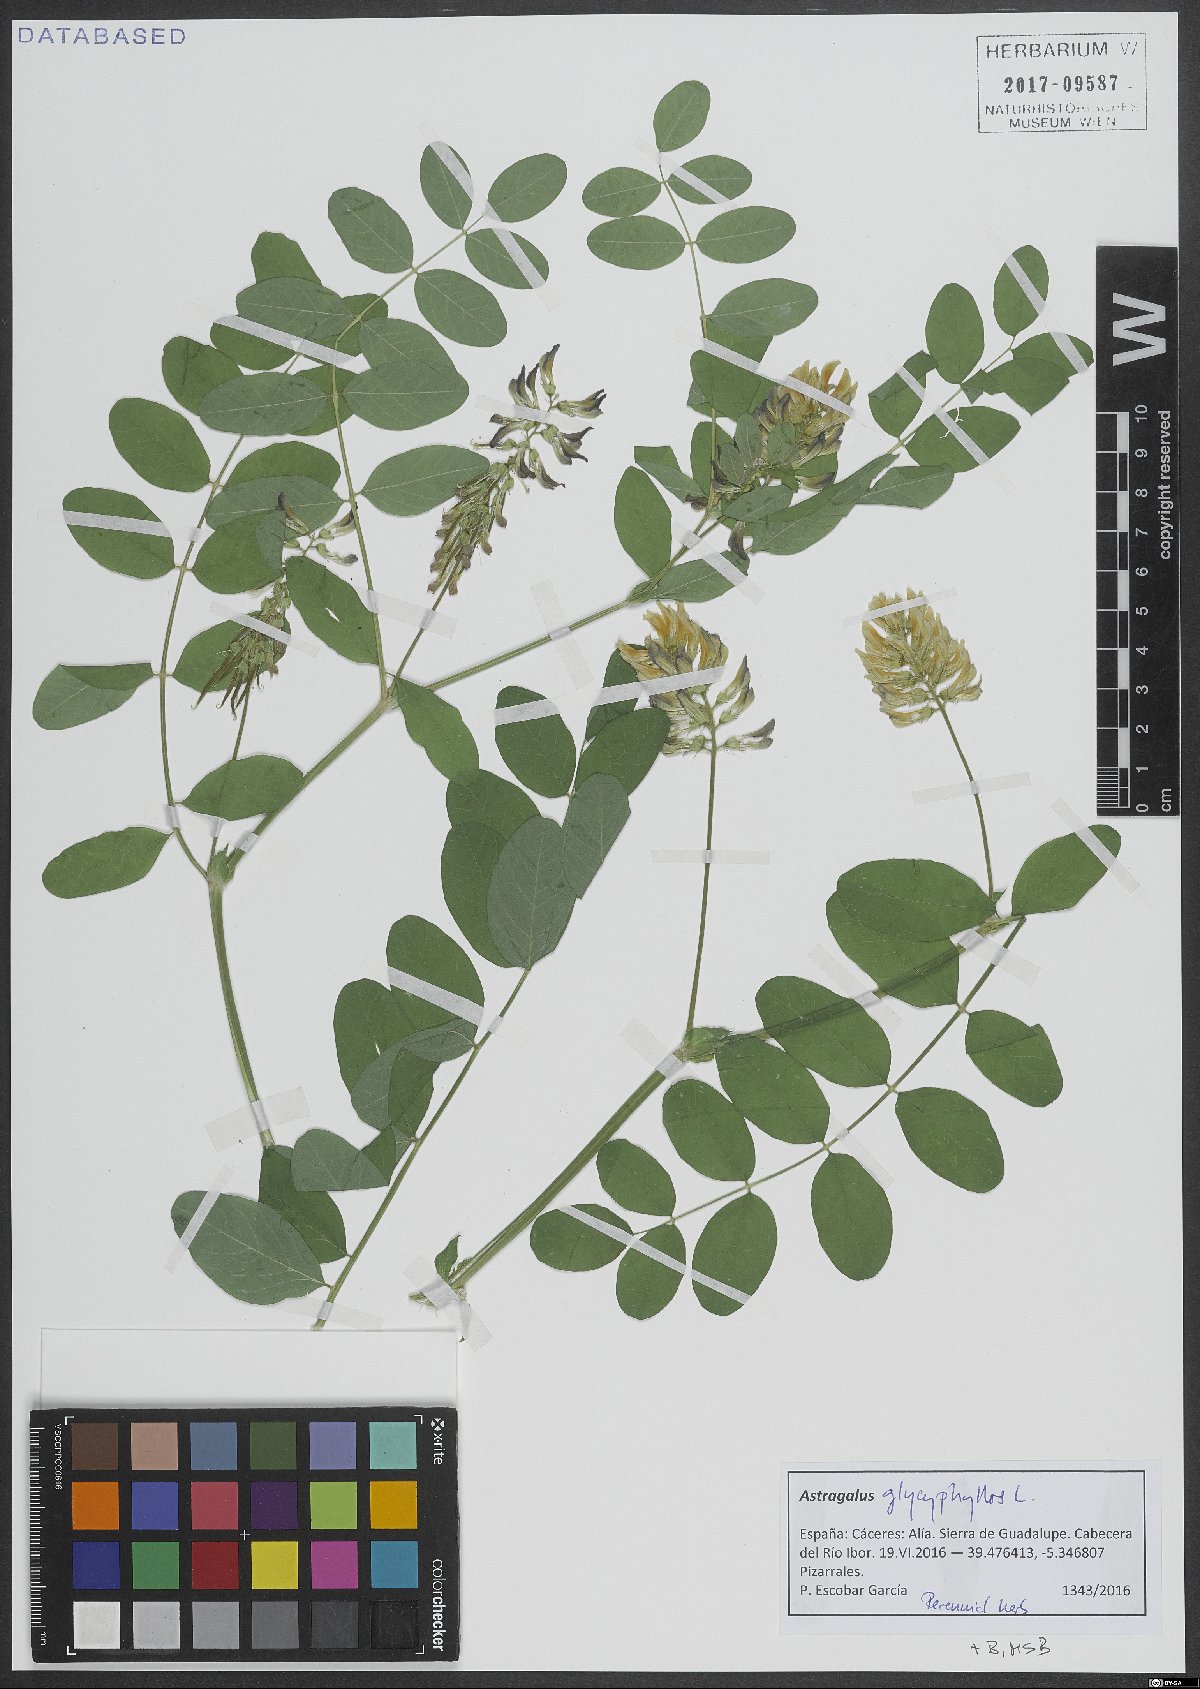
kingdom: Plantae
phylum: Tracheophyta
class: Magnoliopsida
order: Fabales
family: Fabaceae
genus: Astragalus
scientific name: Astragalus glycyphyllos
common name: Wild liquorice
